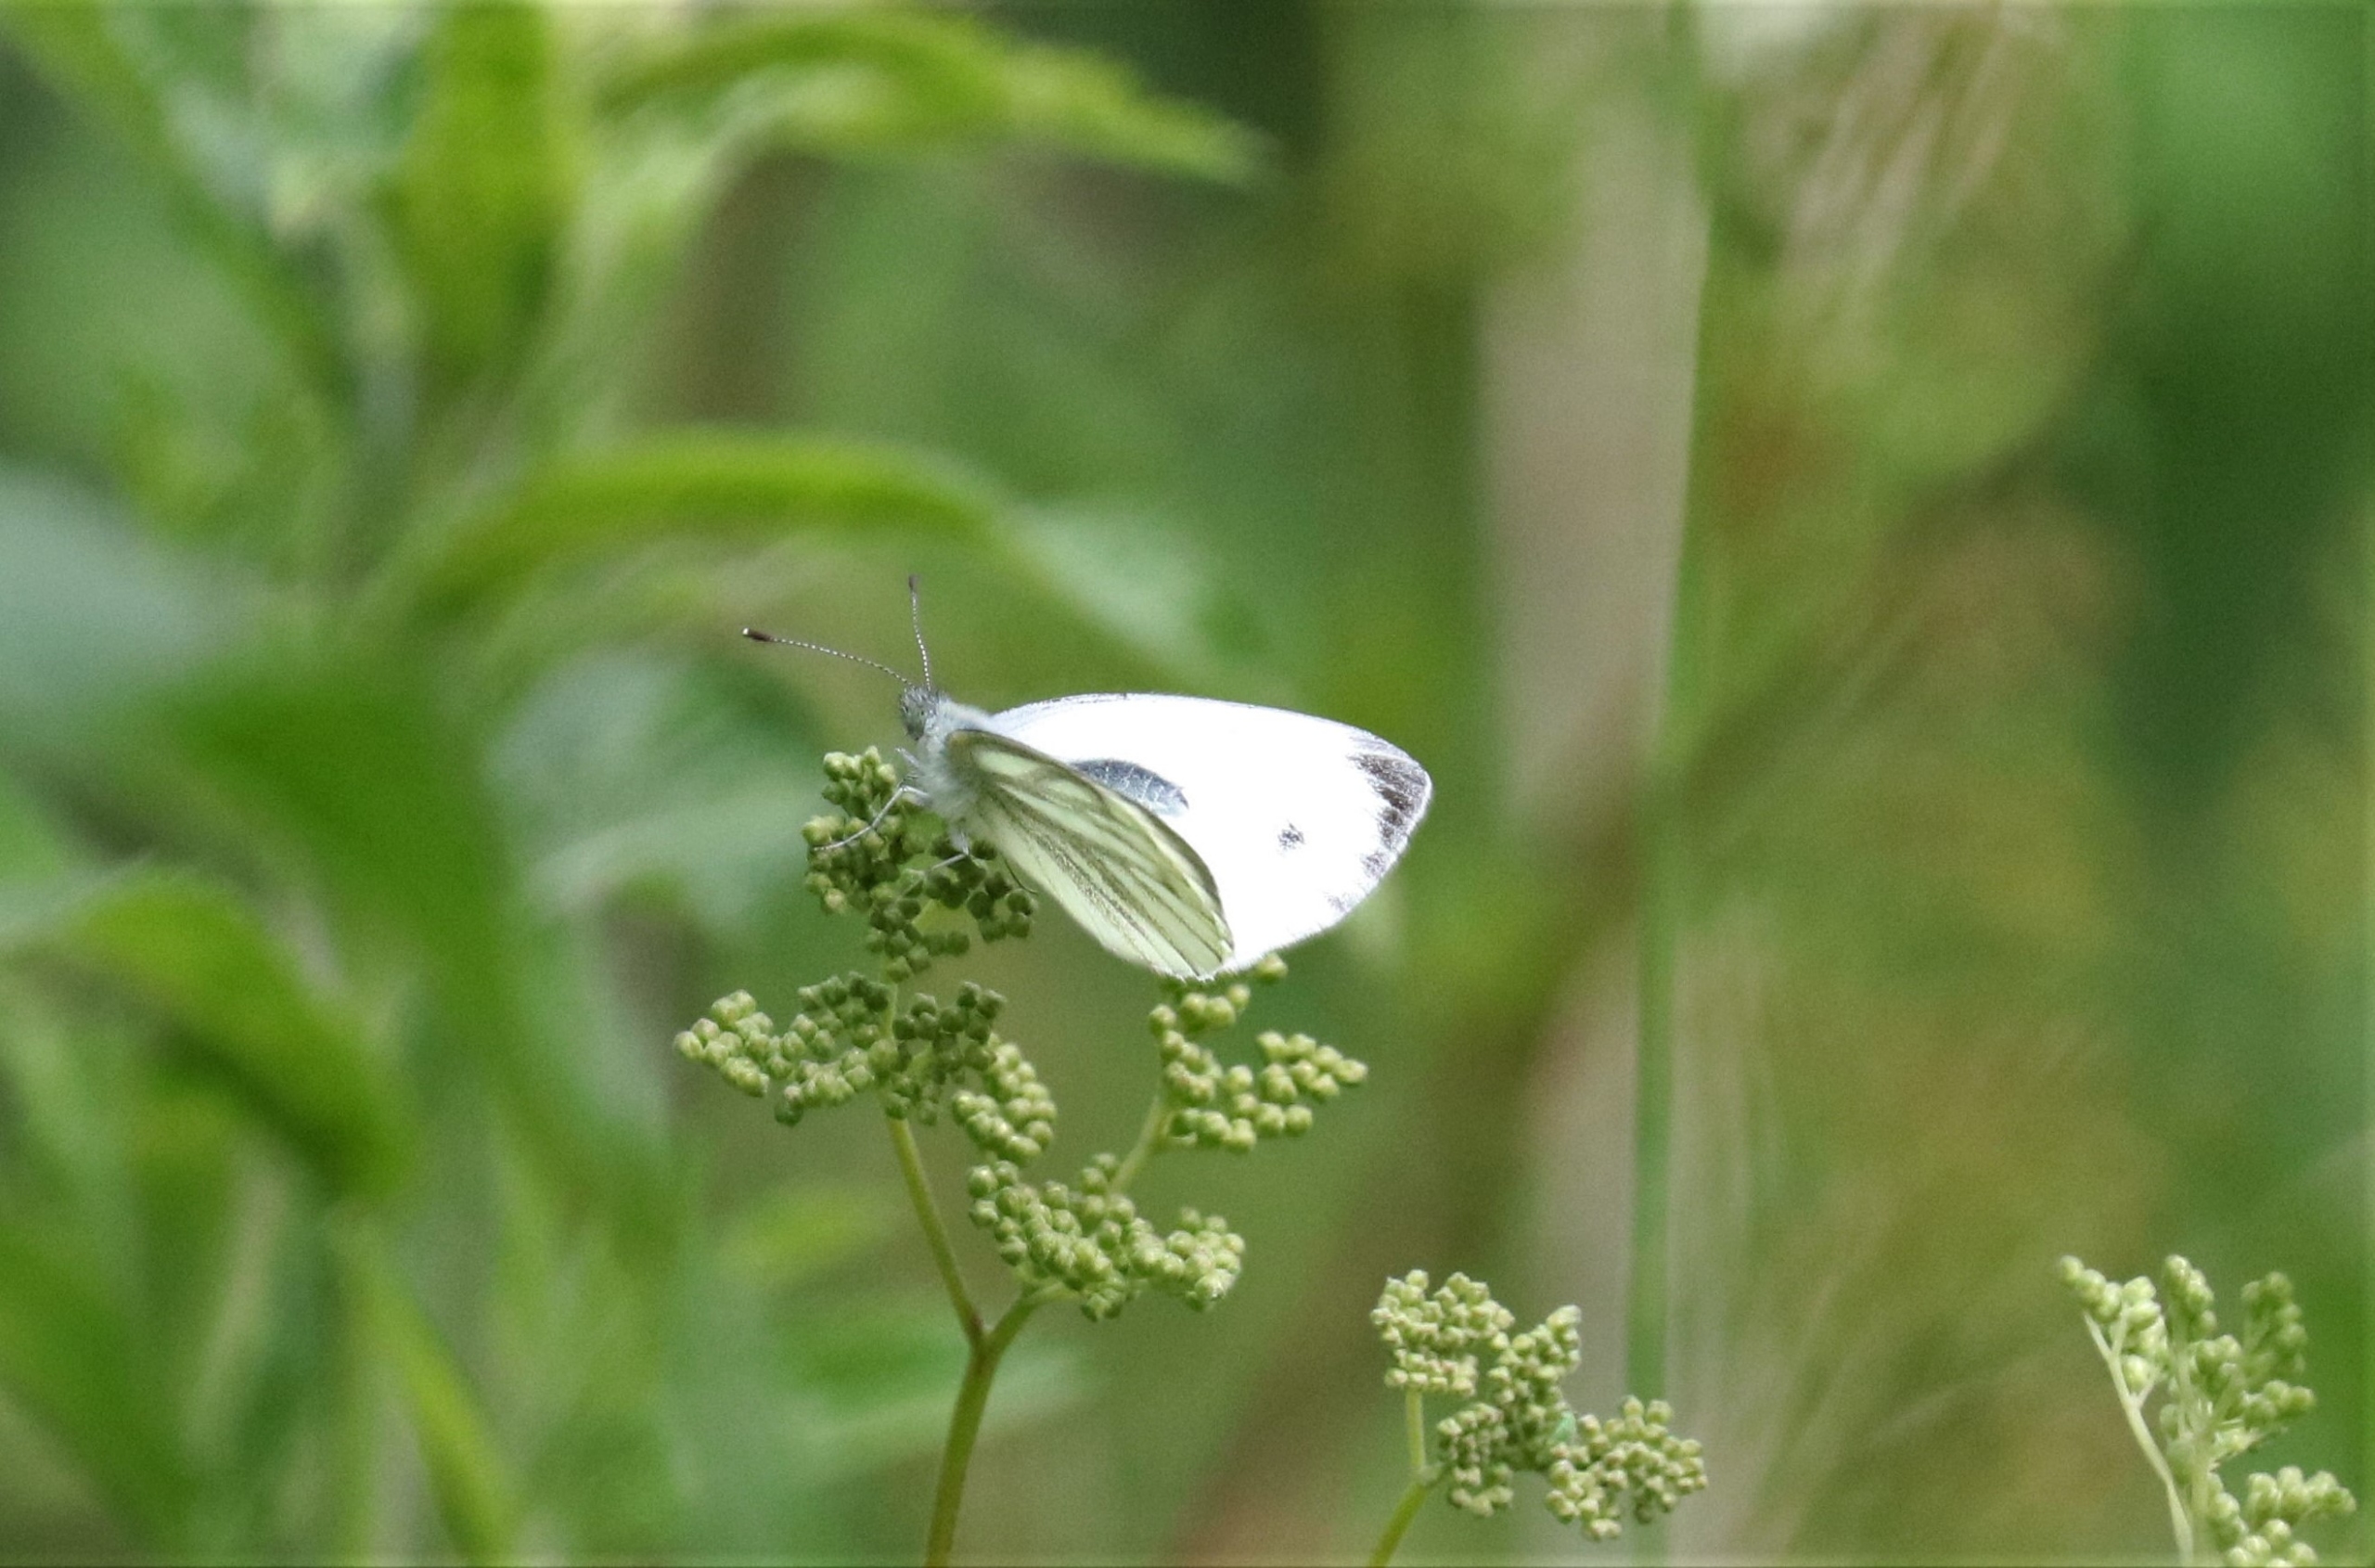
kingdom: Animalia
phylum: Arthropoda
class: Insecta
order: Lepidoptera
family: Pieridae
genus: Pieris
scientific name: Pieris napi
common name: Grønåret kålsommerfugl
